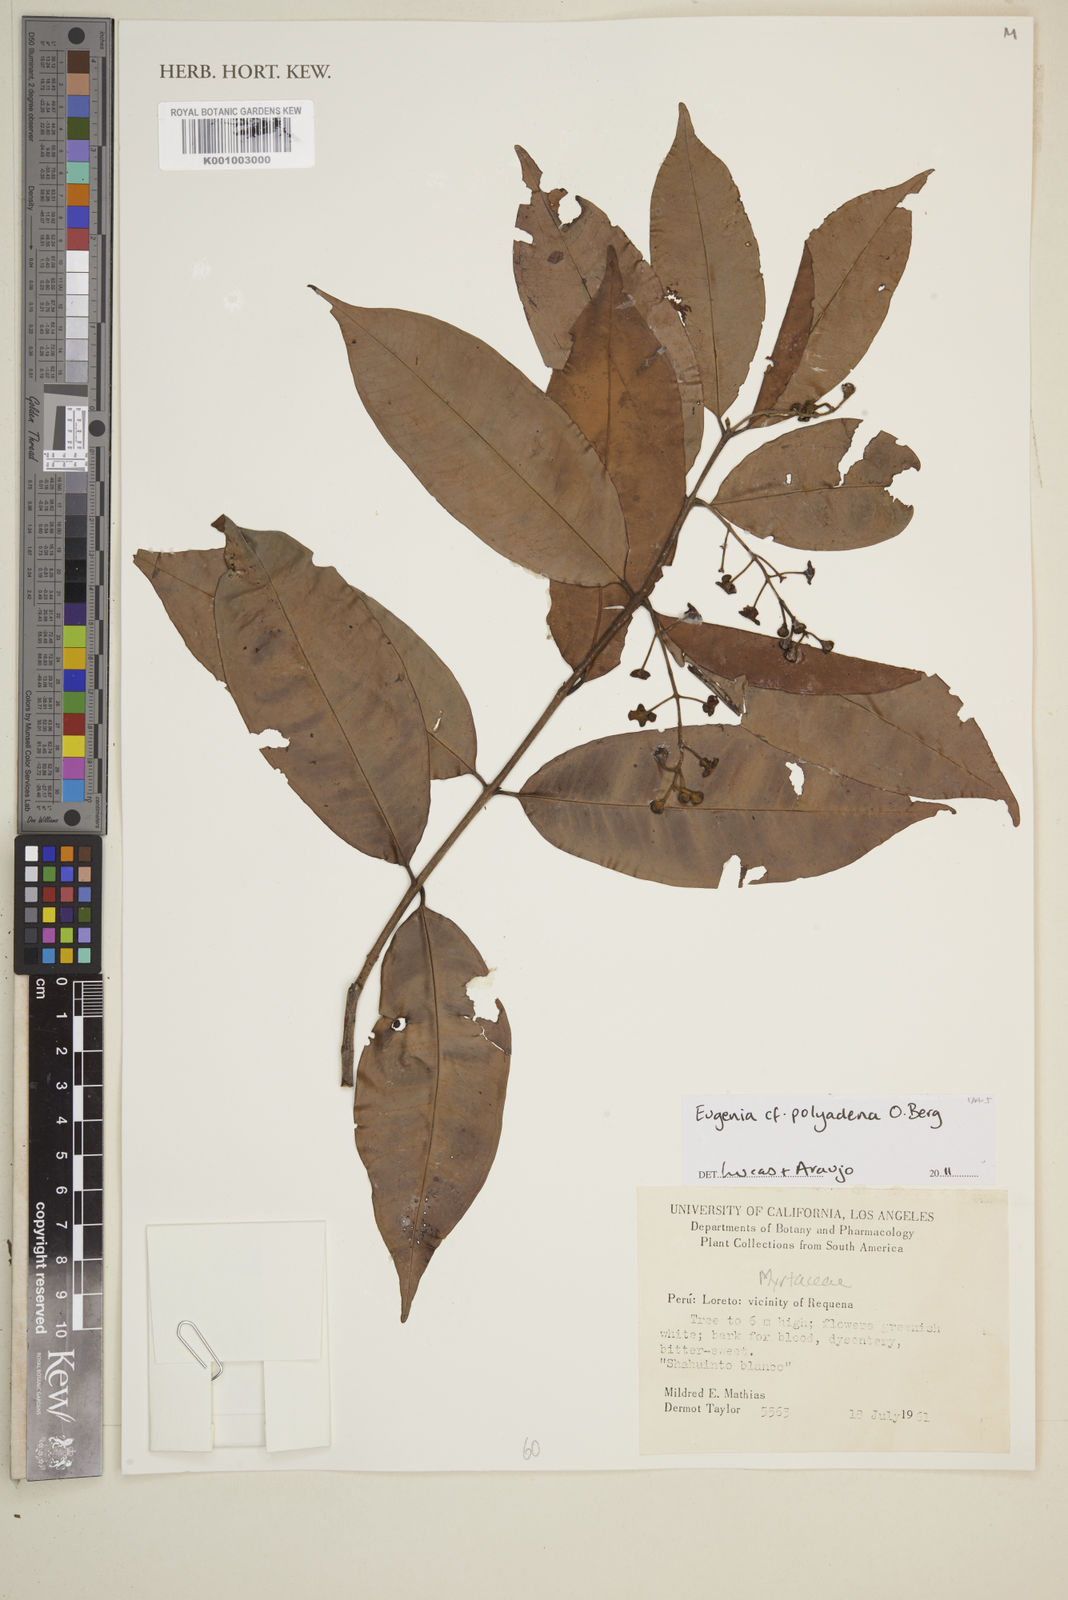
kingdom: Plantae
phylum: Tracheophyta
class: Magnoliopsida
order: Myrtales
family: Myrtaceae
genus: Eugenia
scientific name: Eugenia polyadena
